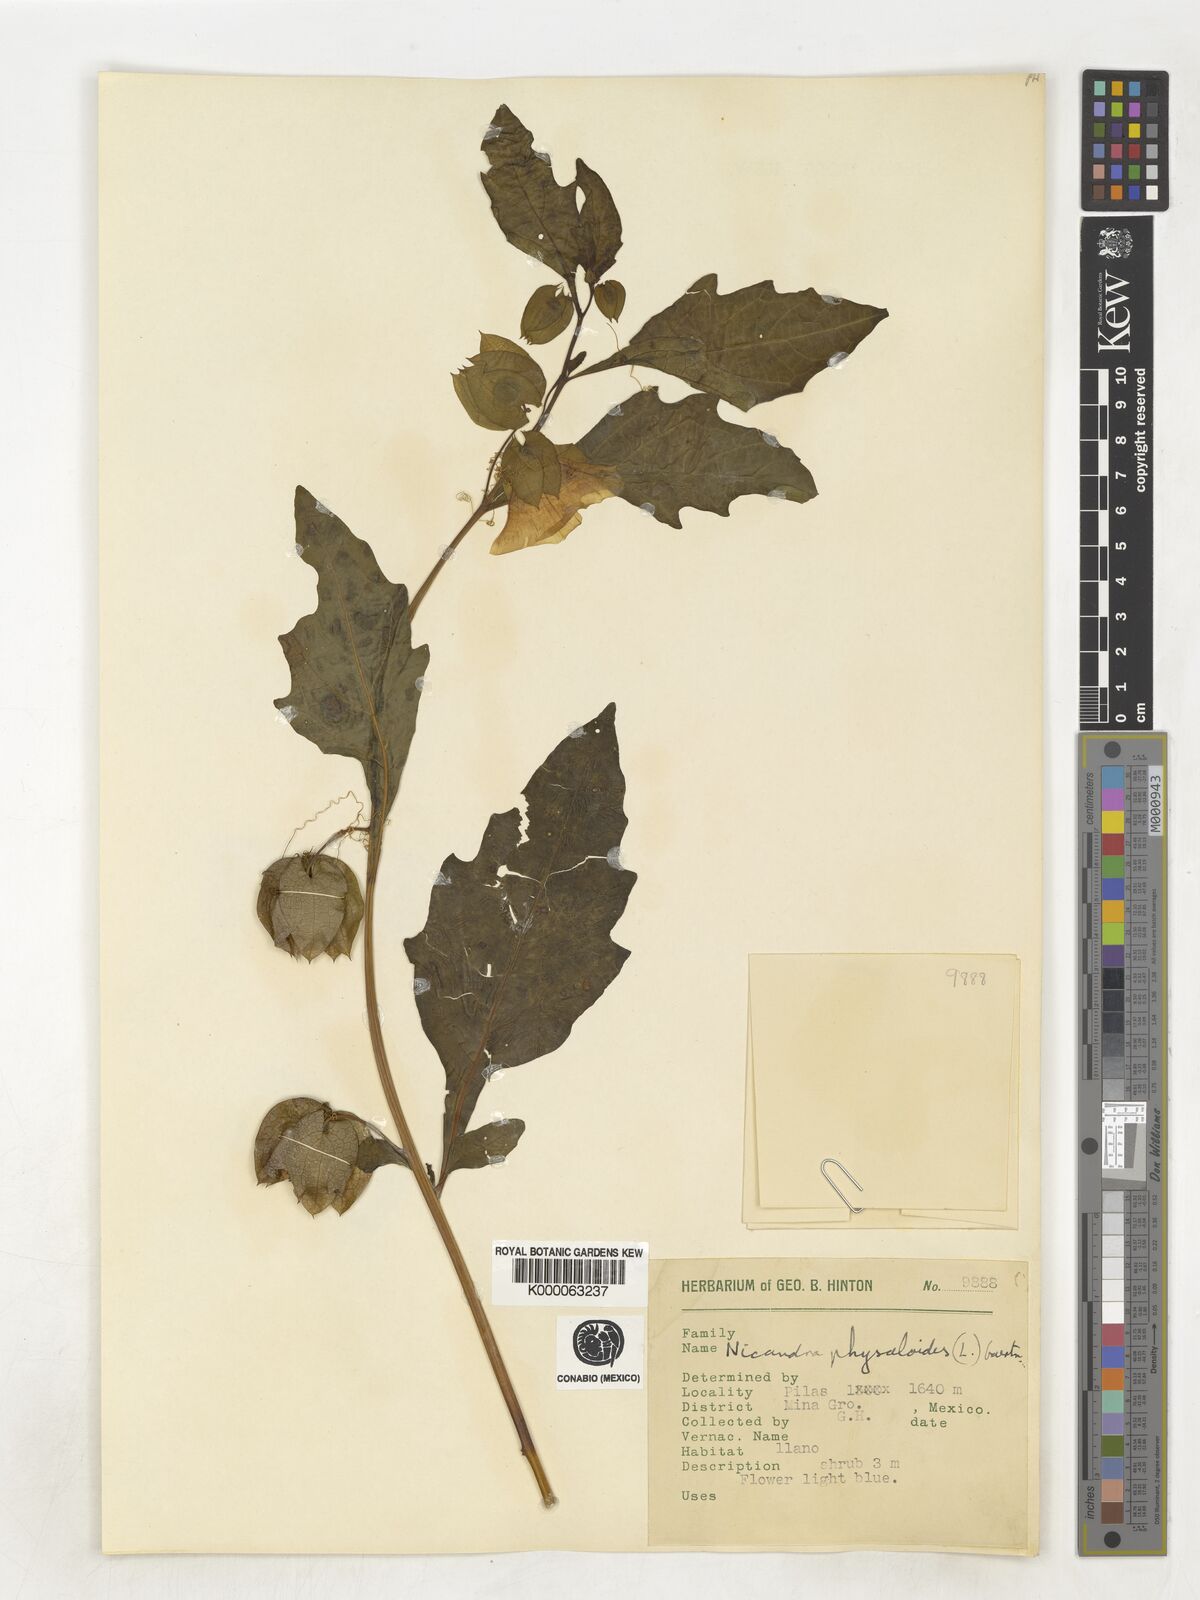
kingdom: Plantae
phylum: Tracheophyta
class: Magnoliopsida
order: Solanales
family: Solanaceae
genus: Nicandra
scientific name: Nicandra
